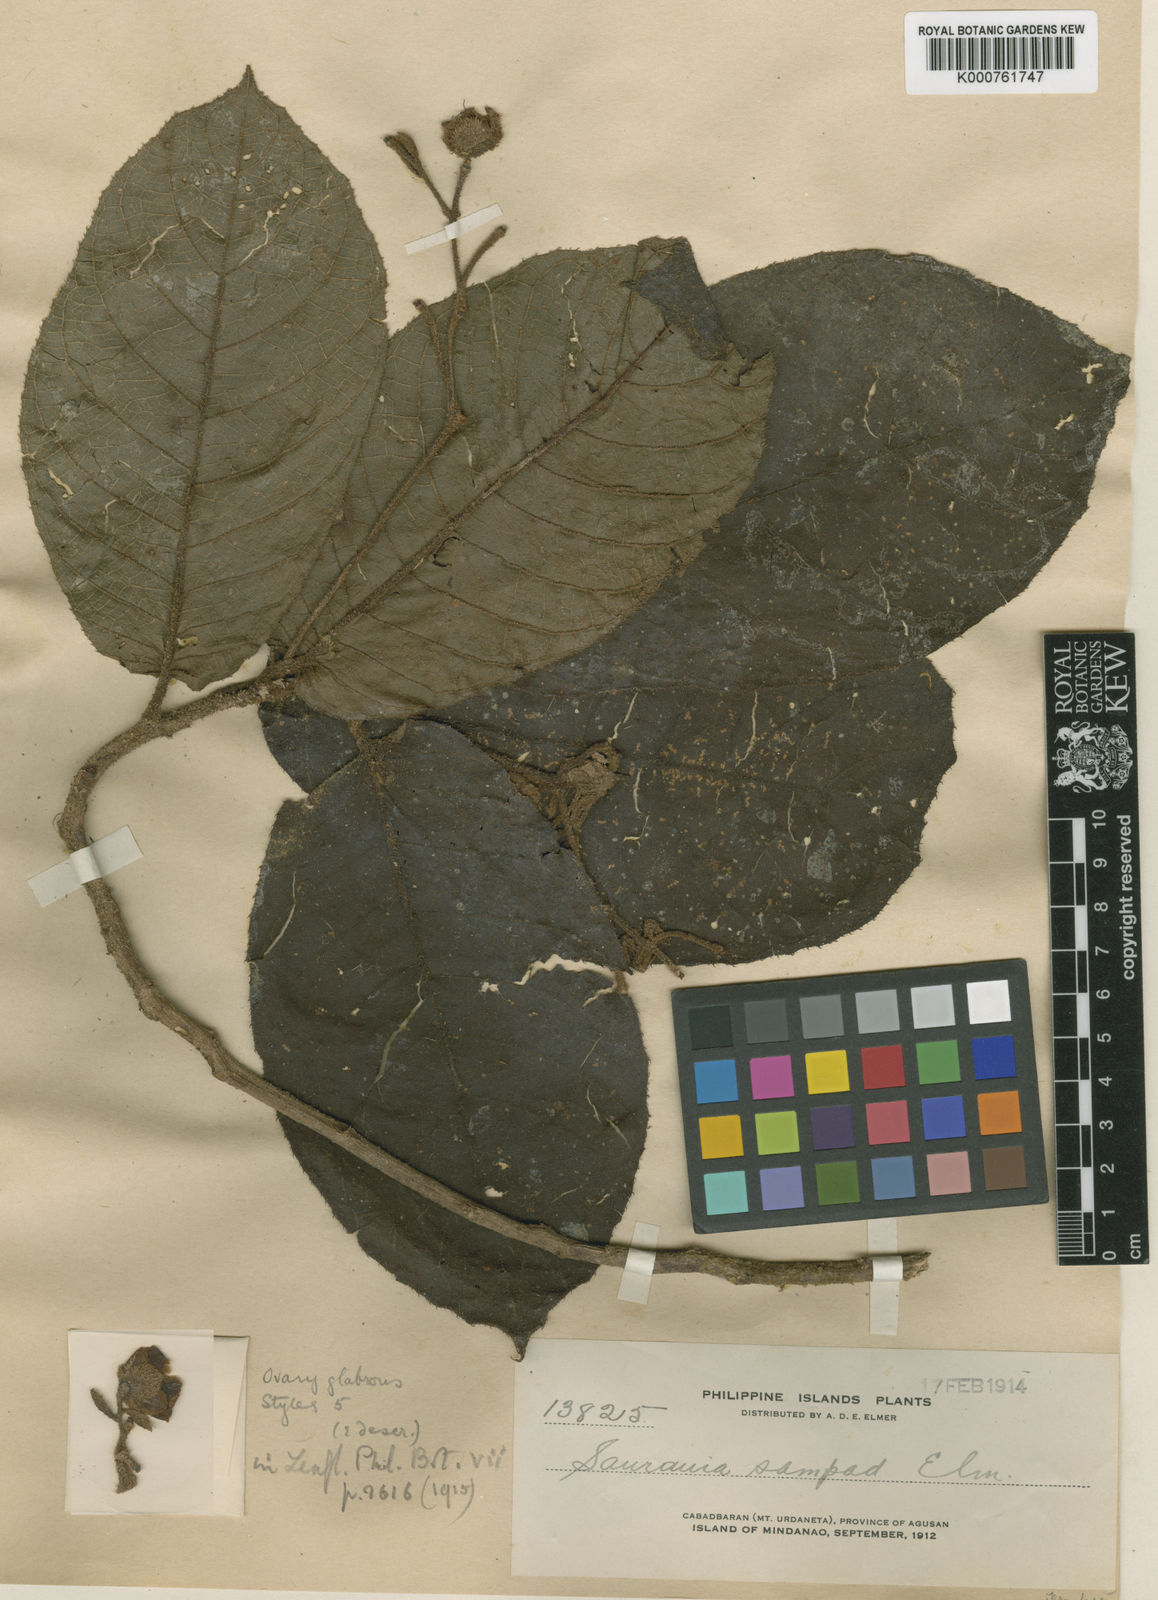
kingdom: Plantae
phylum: Tracheophyta
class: Magnoliopsida
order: Ericales
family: Actinidiaceae
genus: Saurauia
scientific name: Saurauia sampad
